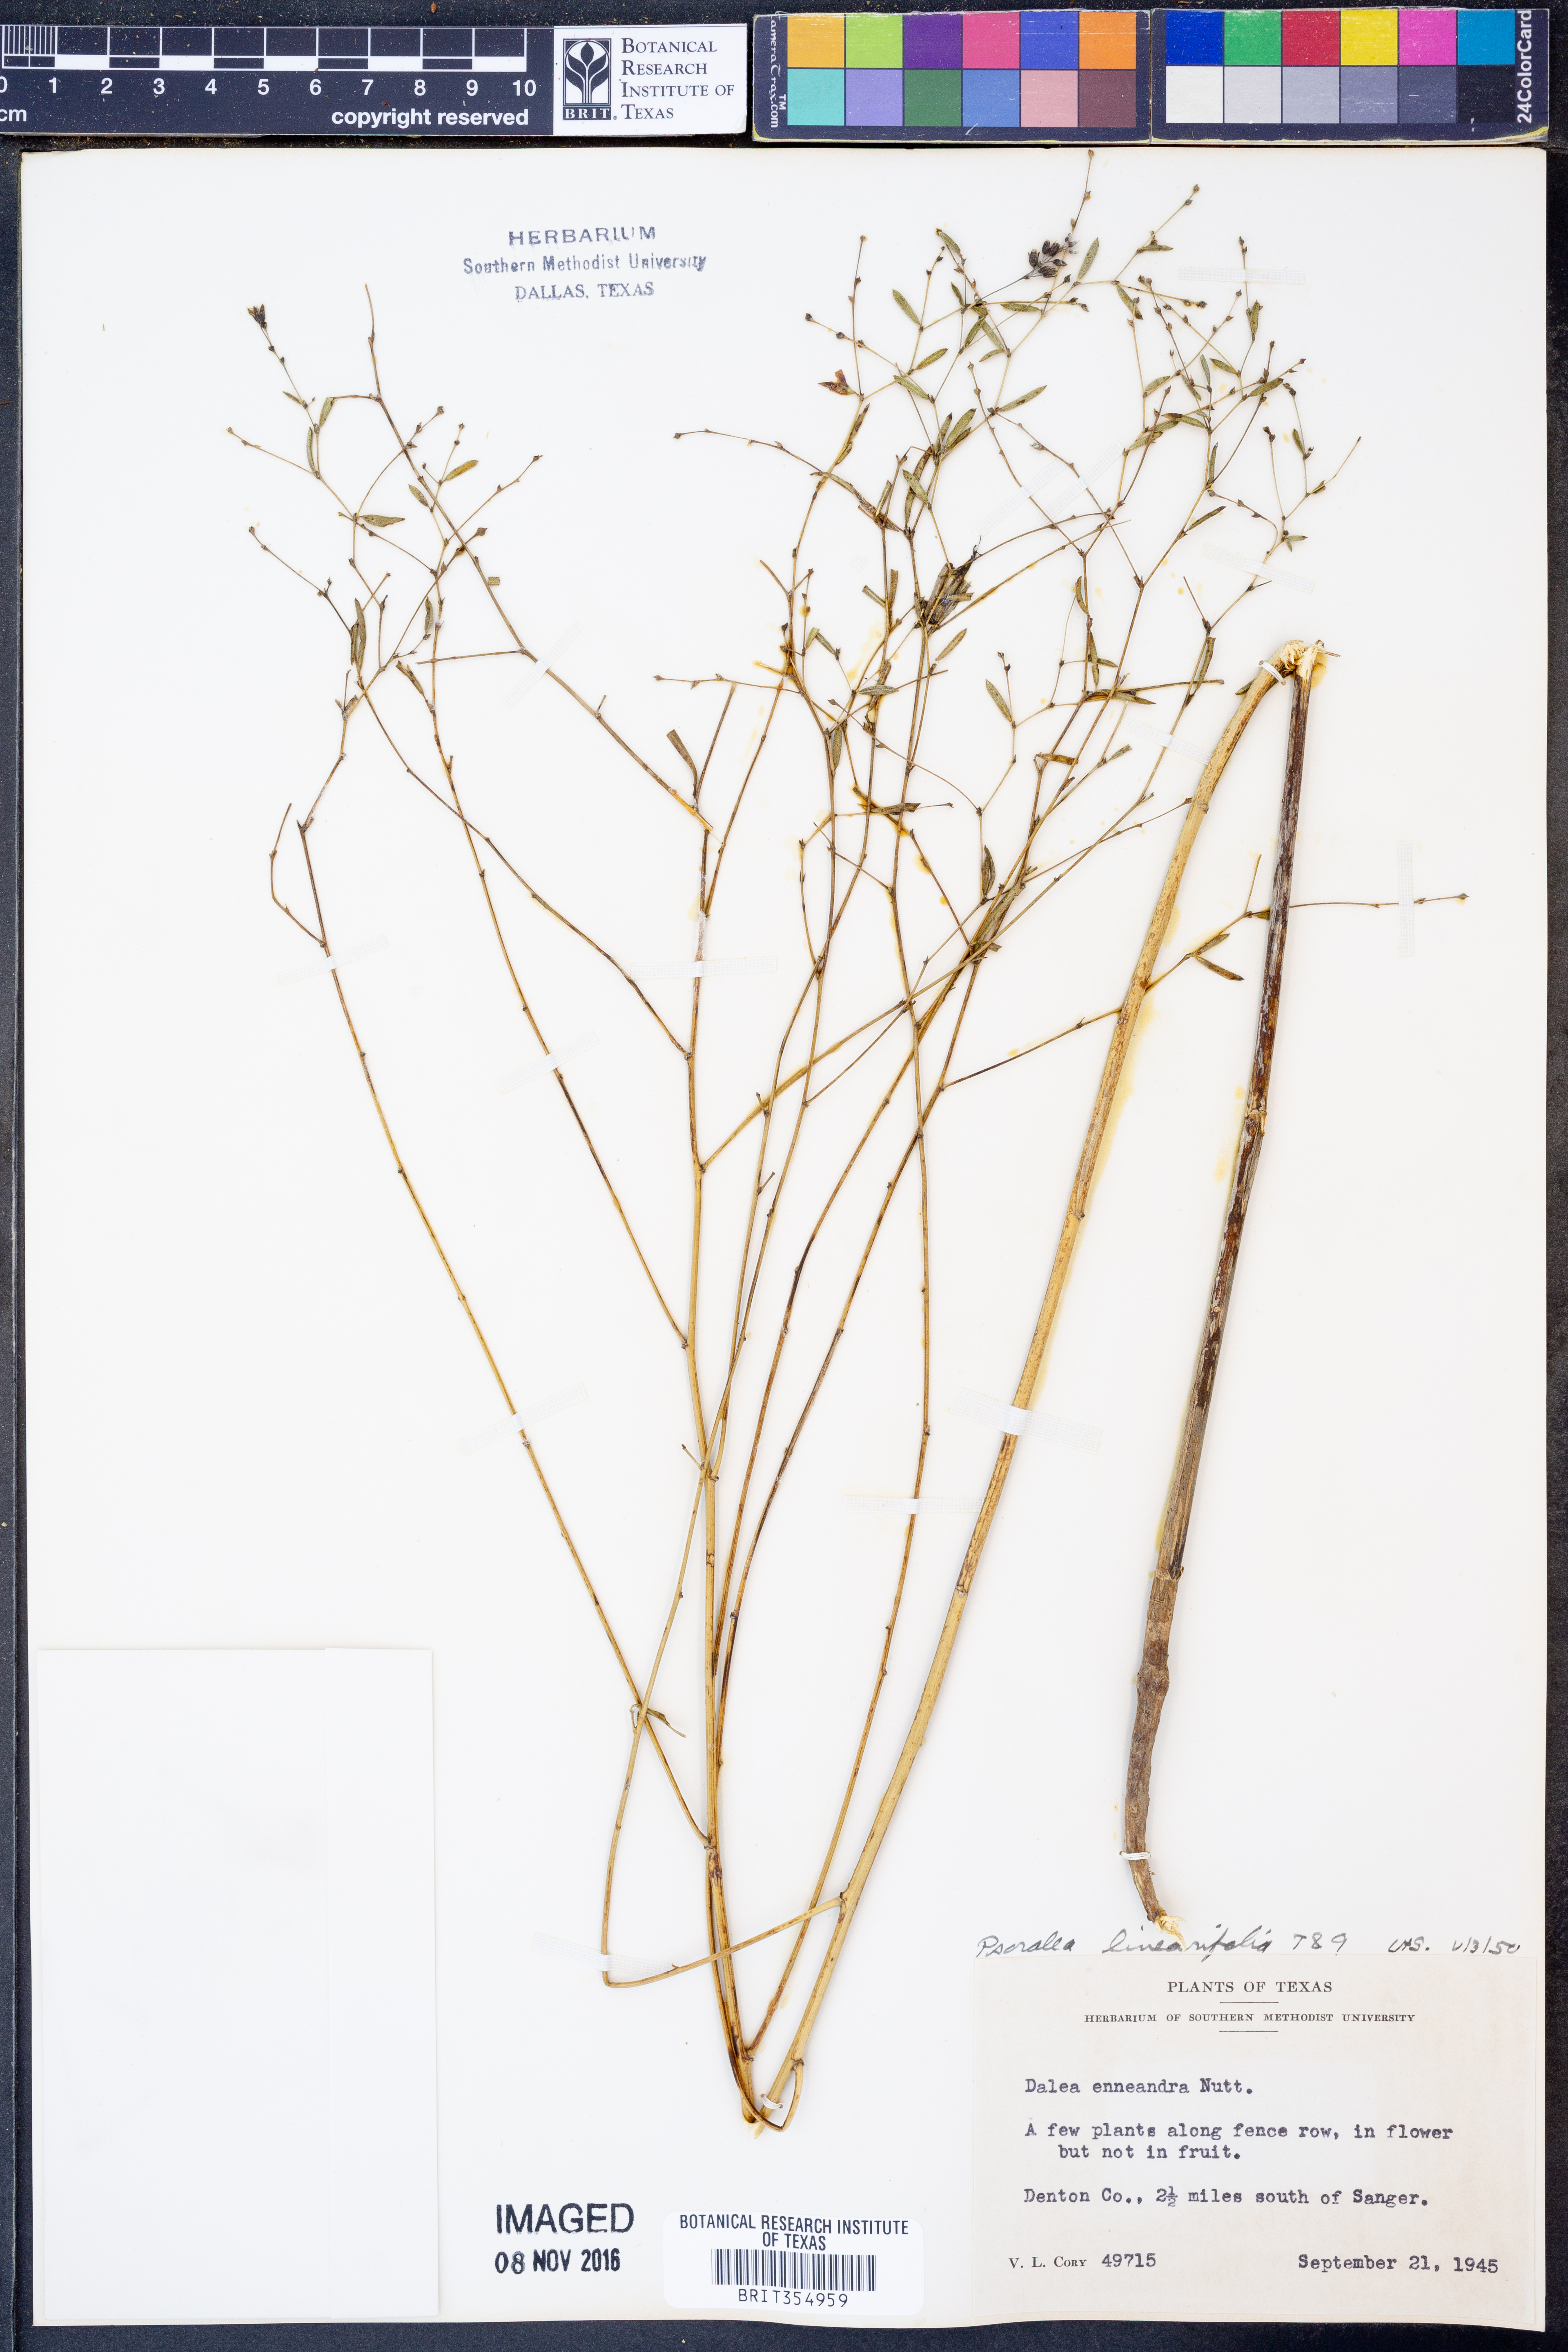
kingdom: Plantae
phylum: Tracheophyta
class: Magnoliopsida
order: Fabales
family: Fabaceae
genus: Pediomelum
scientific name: Pediomelum linearifolium
